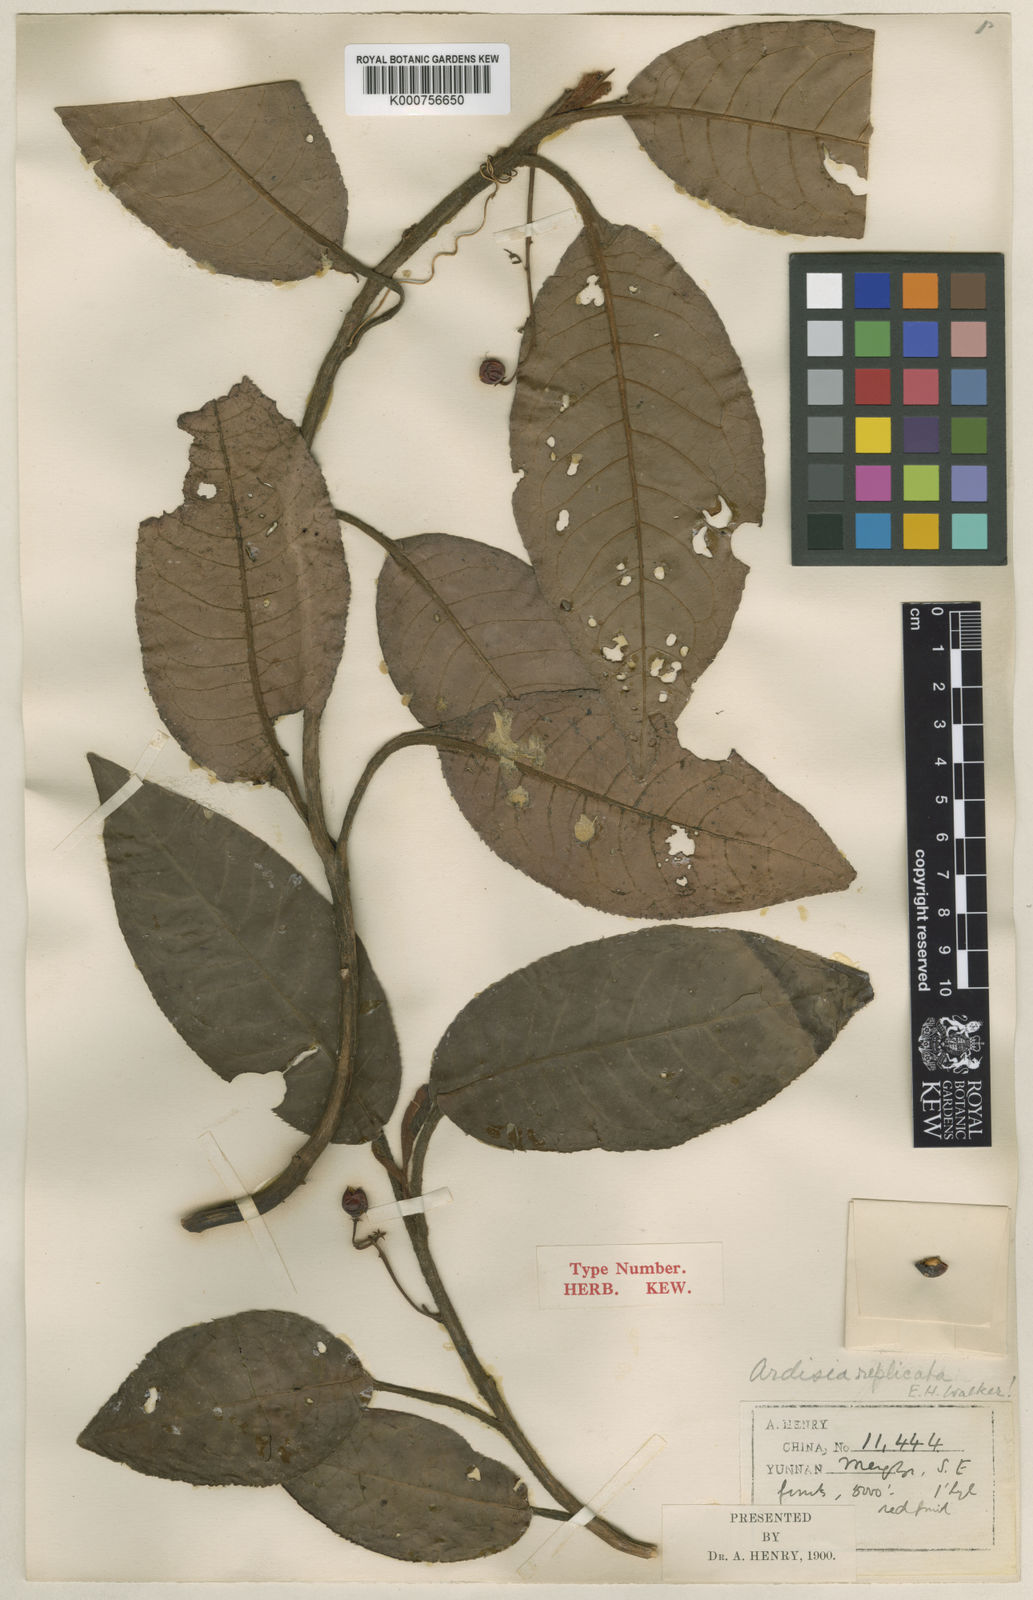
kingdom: Plantae
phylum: Tracheophyta
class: Magnoliopsida
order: Ericales
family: Primulaceae
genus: Ardisia
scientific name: Ardisia replicata
